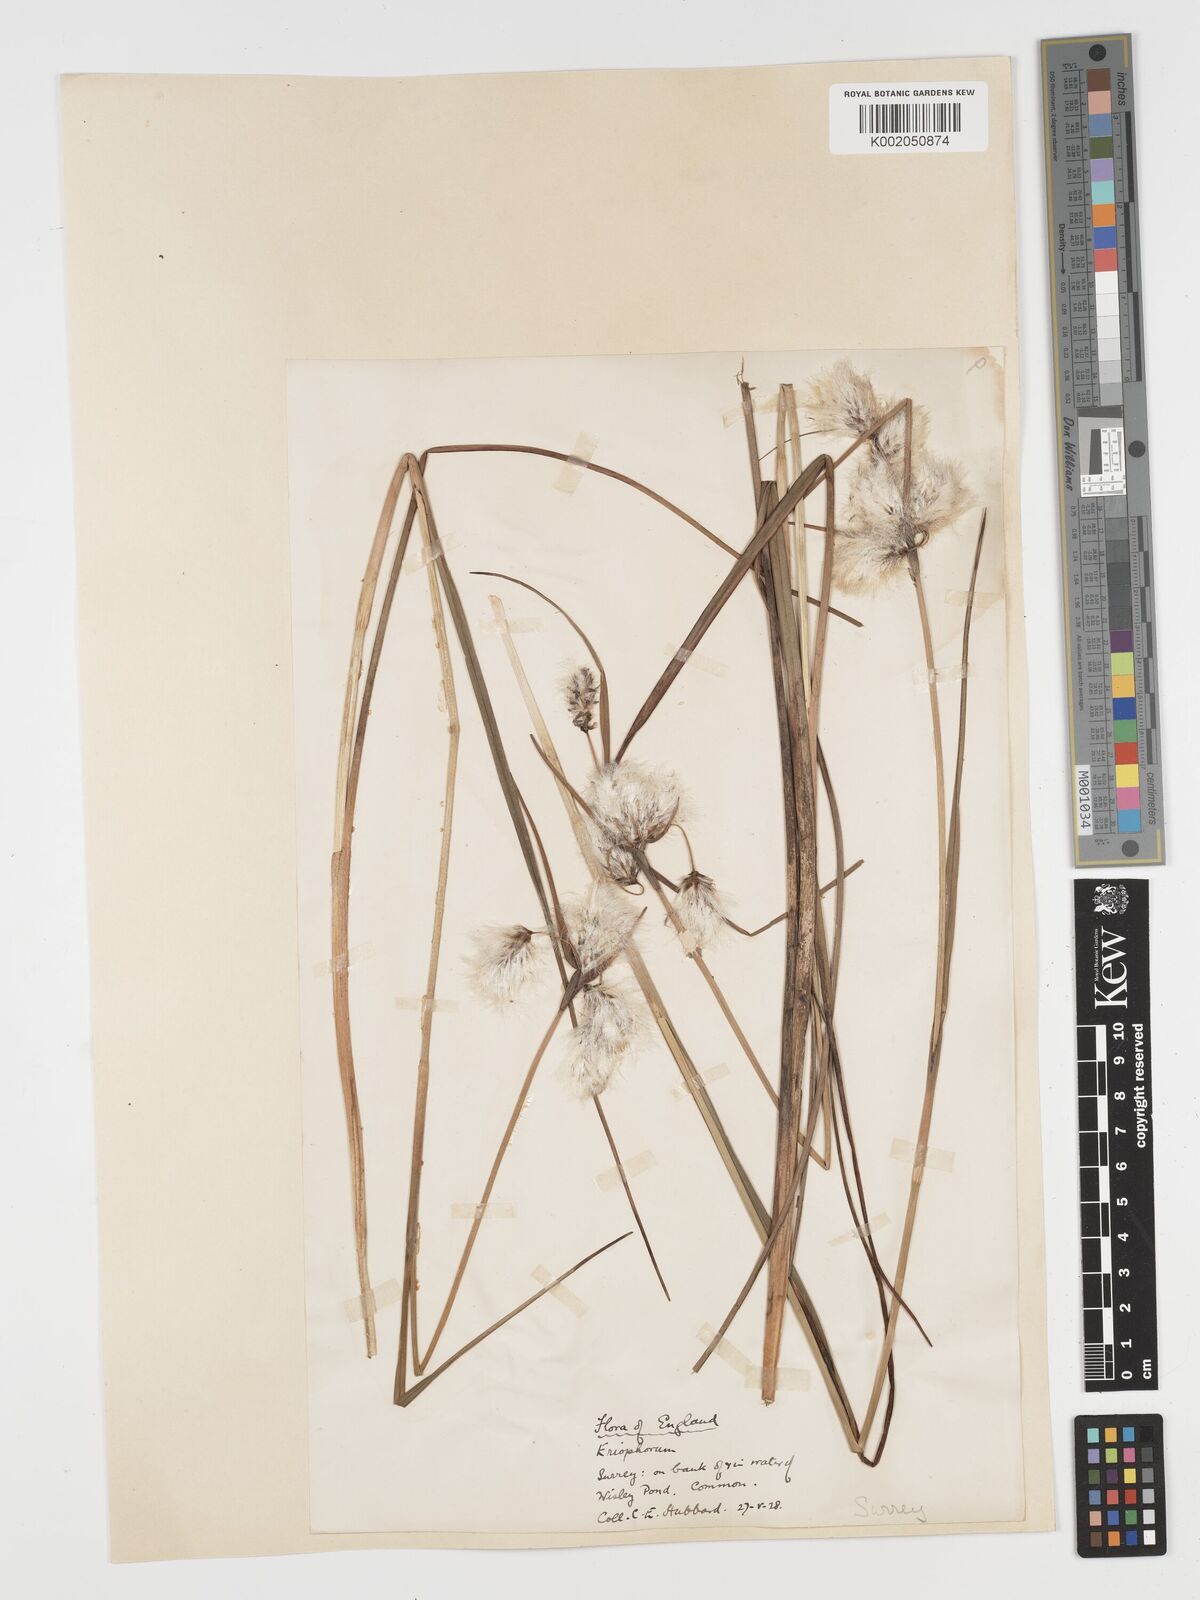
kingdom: Plantae
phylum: Tracheophyta
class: Liliopsida
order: Poales
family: Cyperaceae
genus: Eriophorum
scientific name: Eriophorum angustifolium
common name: Common cottongrass
